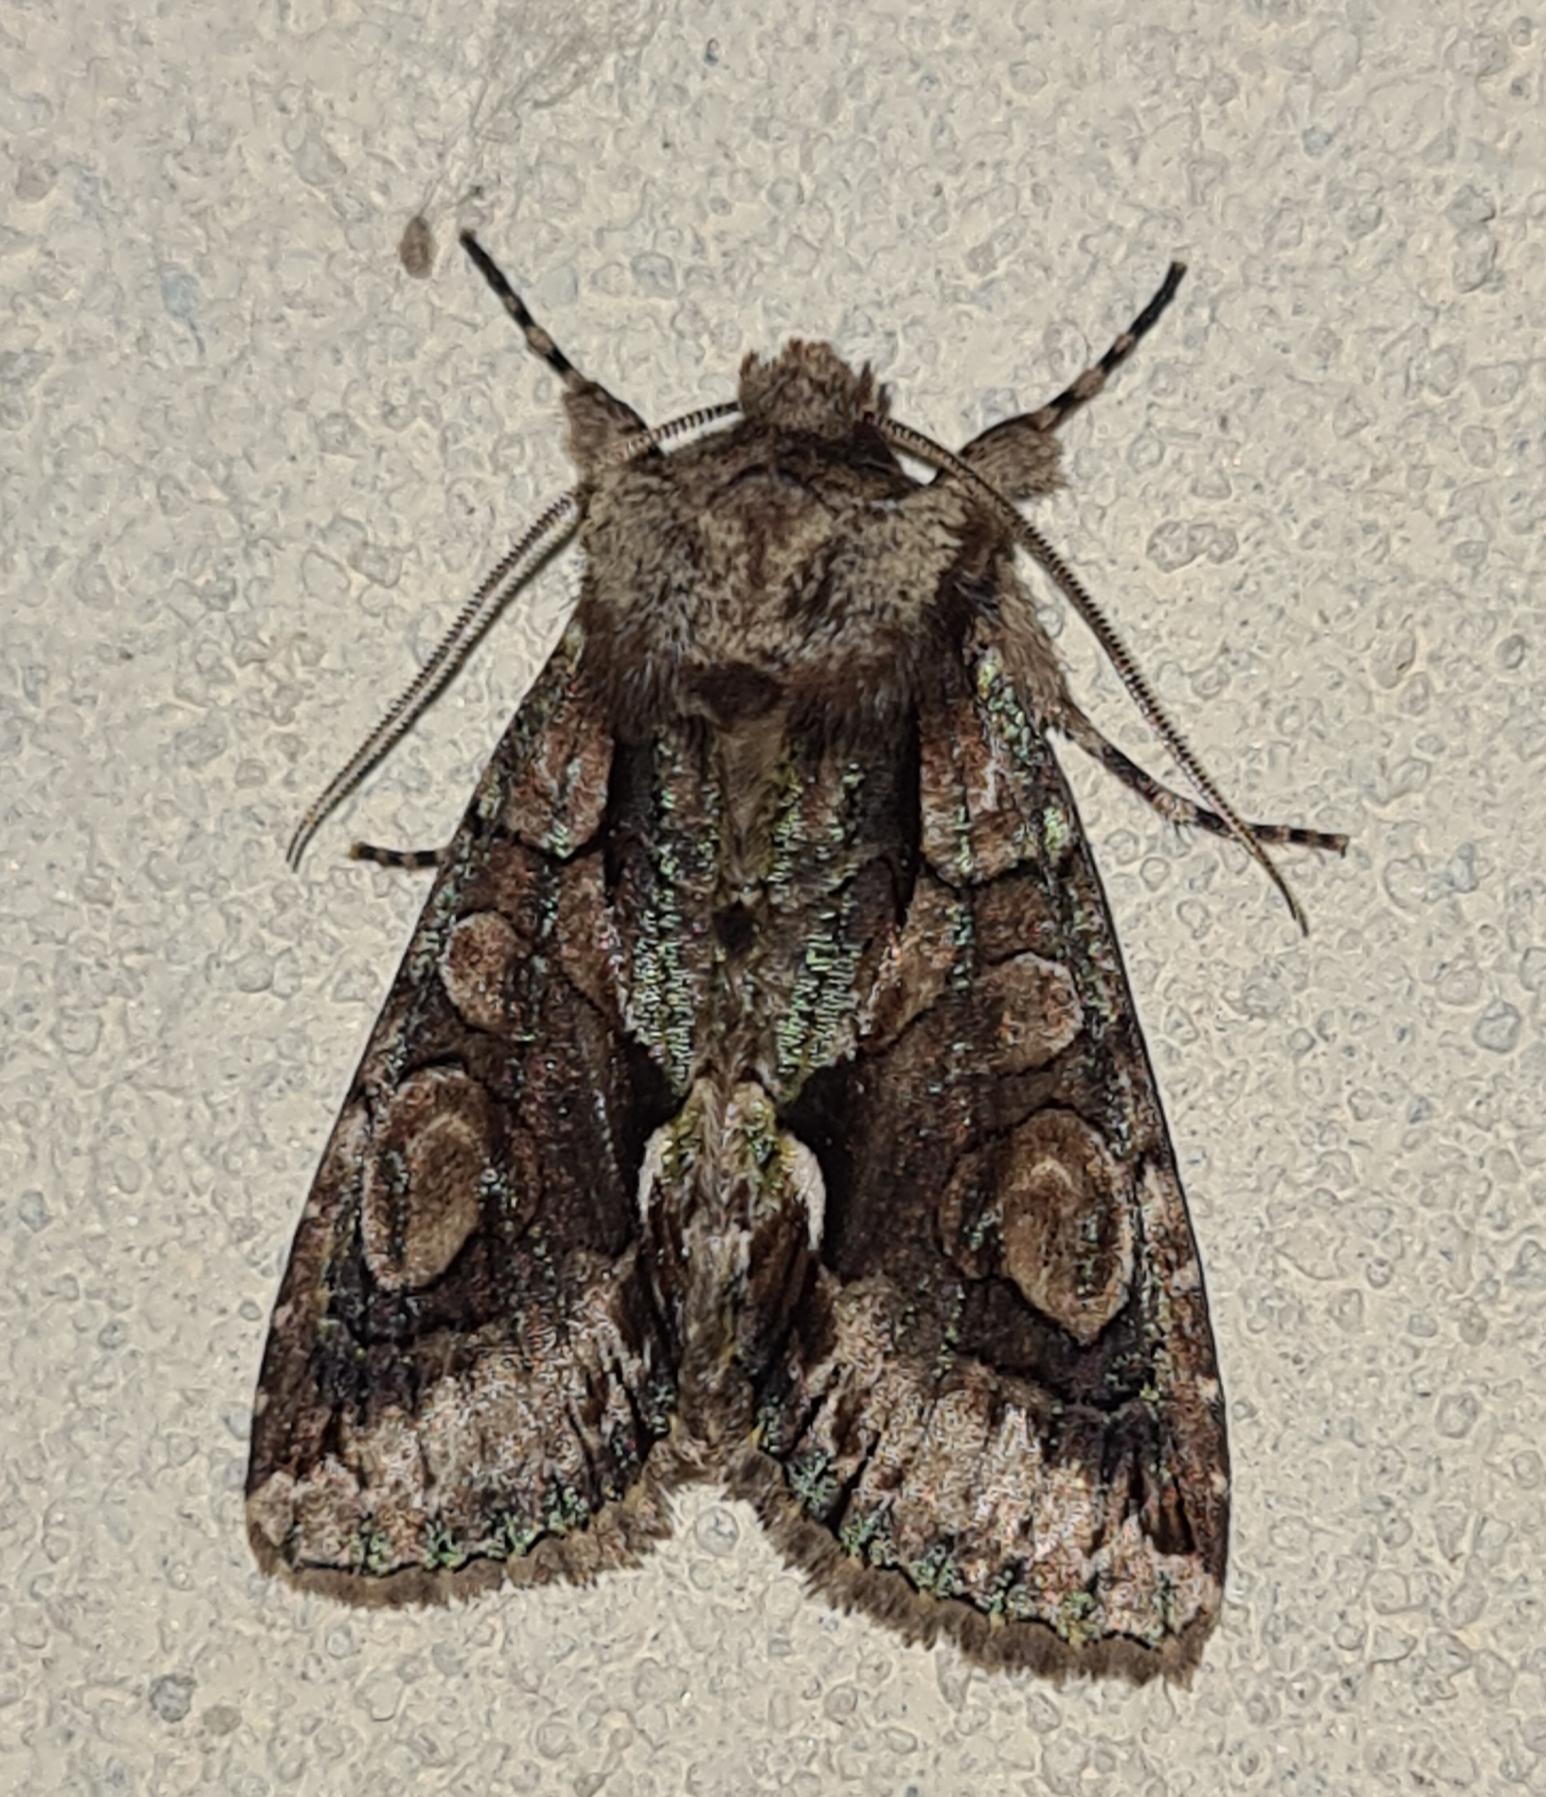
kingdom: Animalia
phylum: Arthropoda
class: Insecta
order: Lepidoptera
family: Noctuidae
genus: Allophyes
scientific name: Allophyes oxyacanthae
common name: Tjørneugle
